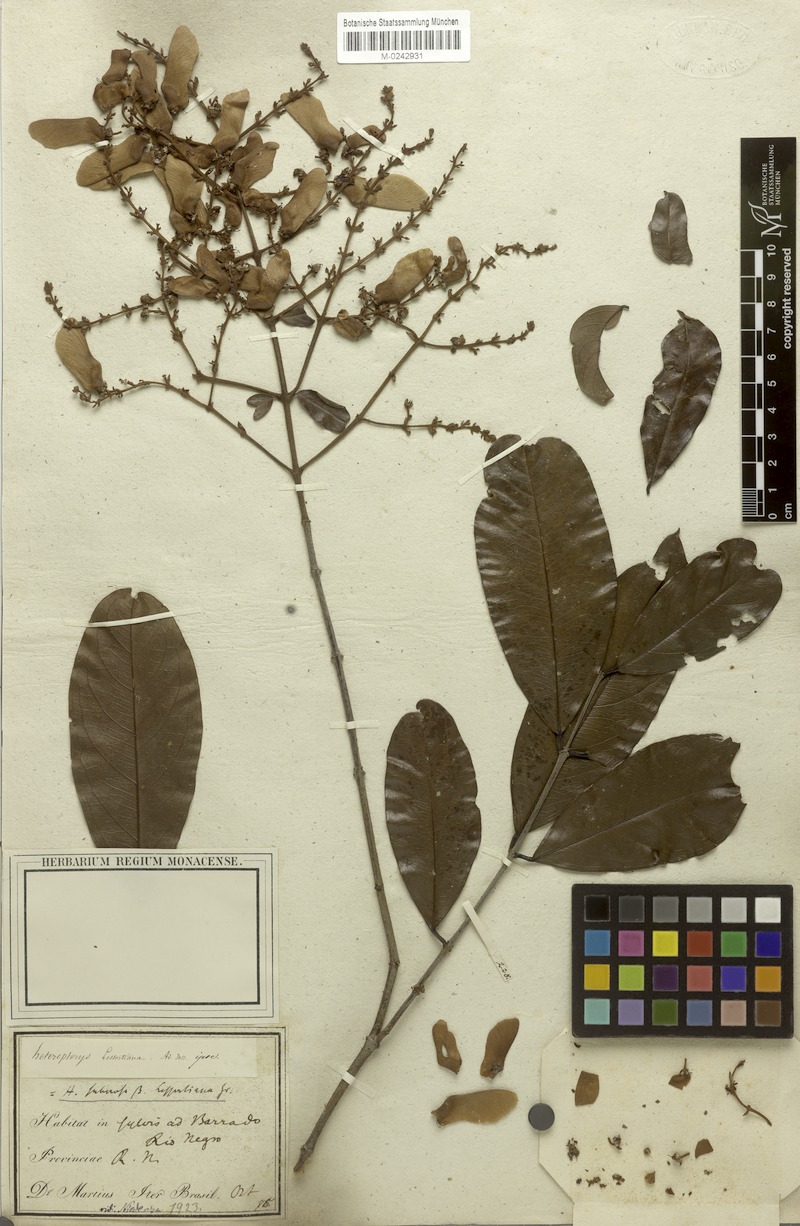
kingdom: Plantae
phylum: Tracheophyta
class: Magnoliopsida
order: Malpighiales
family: Malpighiaceae
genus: Heteropterys
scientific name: Heteropterys macradena
